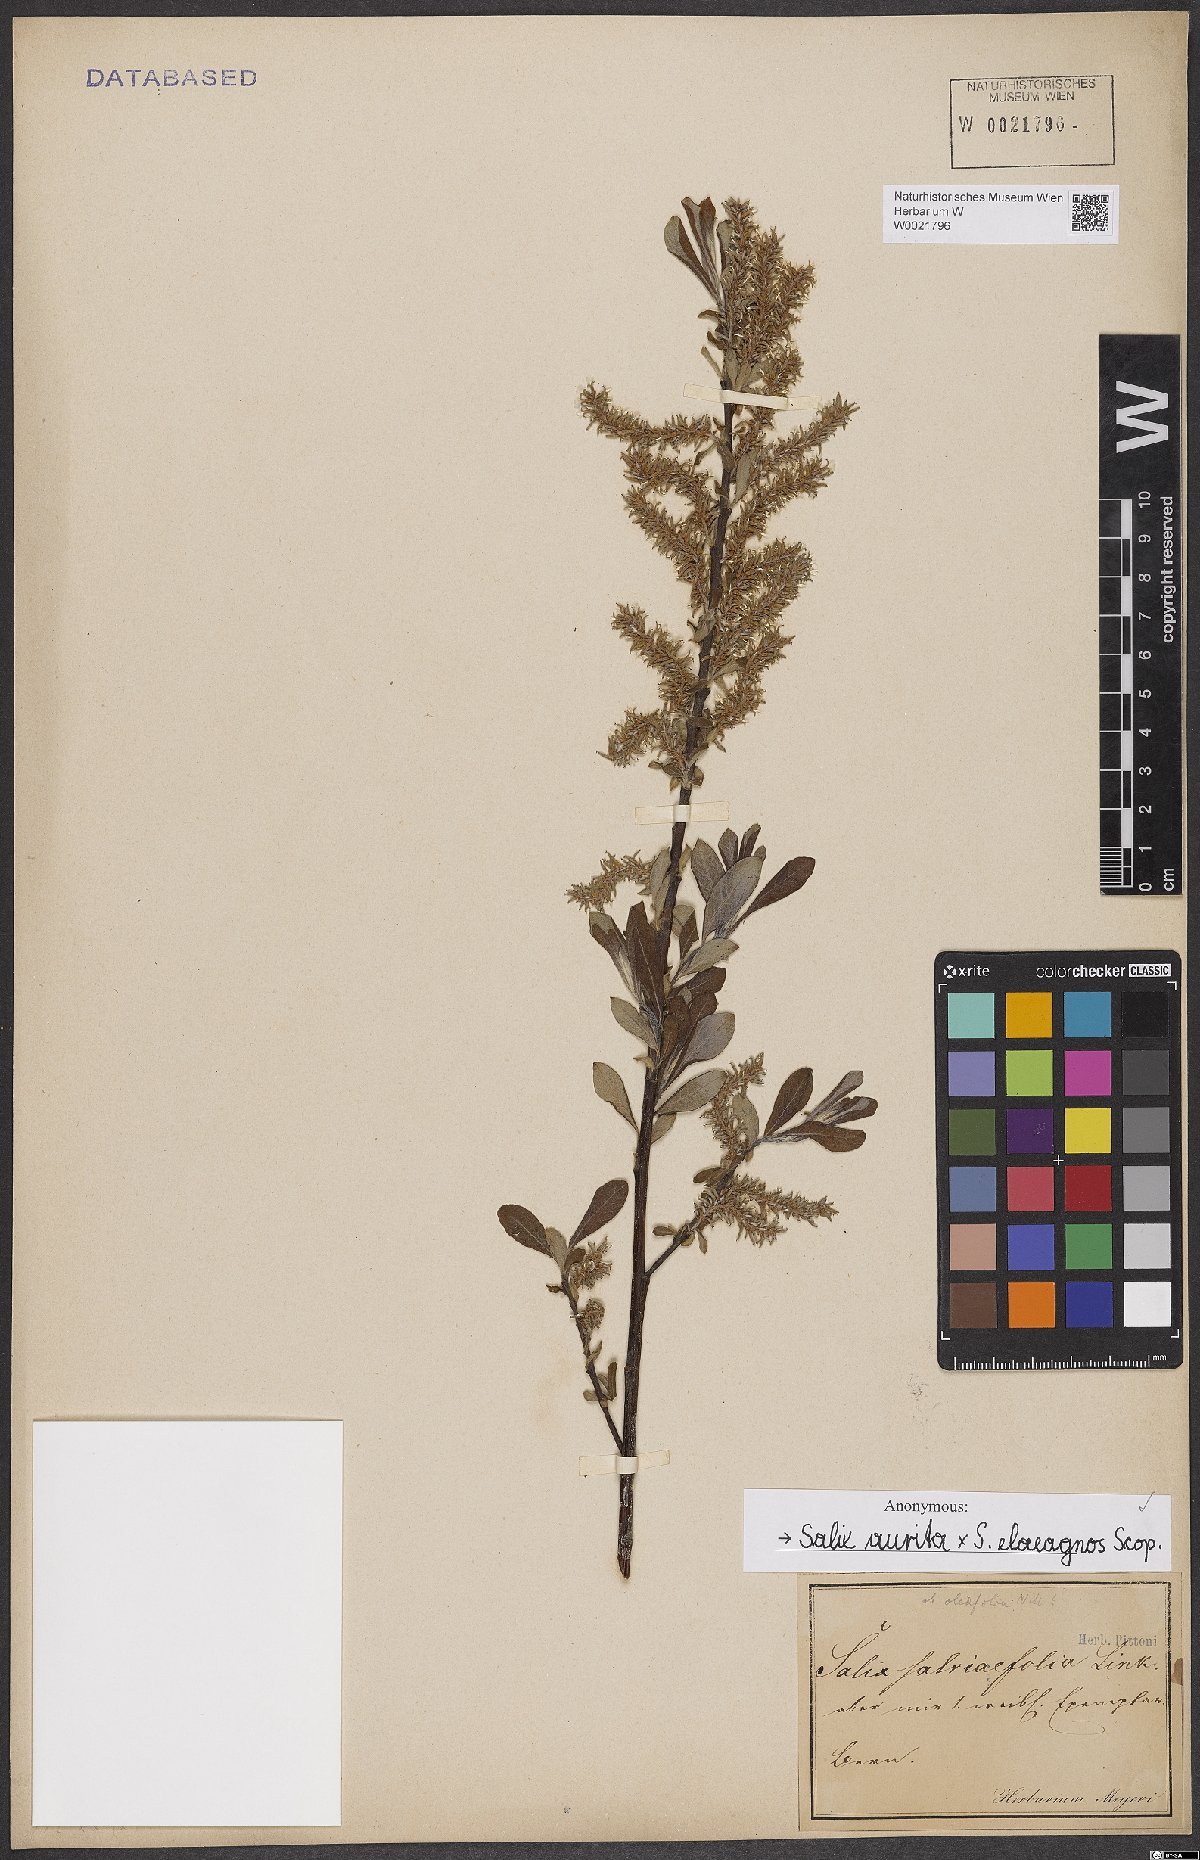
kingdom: Plantae
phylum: Tracheophyta
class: Magnoliopsida
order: Malpighiales
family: Salicaceae
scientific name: Salicaceae
